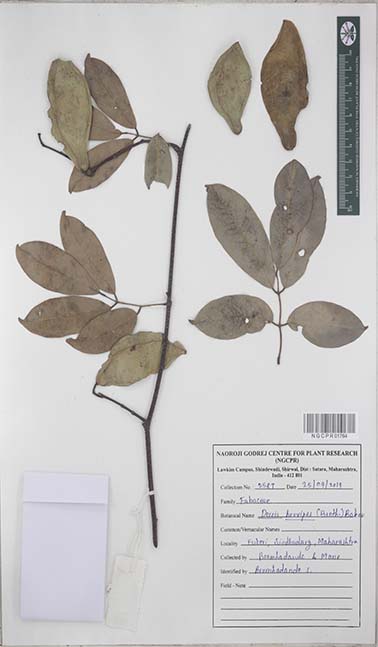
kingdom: Plantae
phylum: Tracheophyta
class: Magnoliopsida
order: Fabales
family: Fabaceae
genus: Derris
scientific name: Derris brevipes
